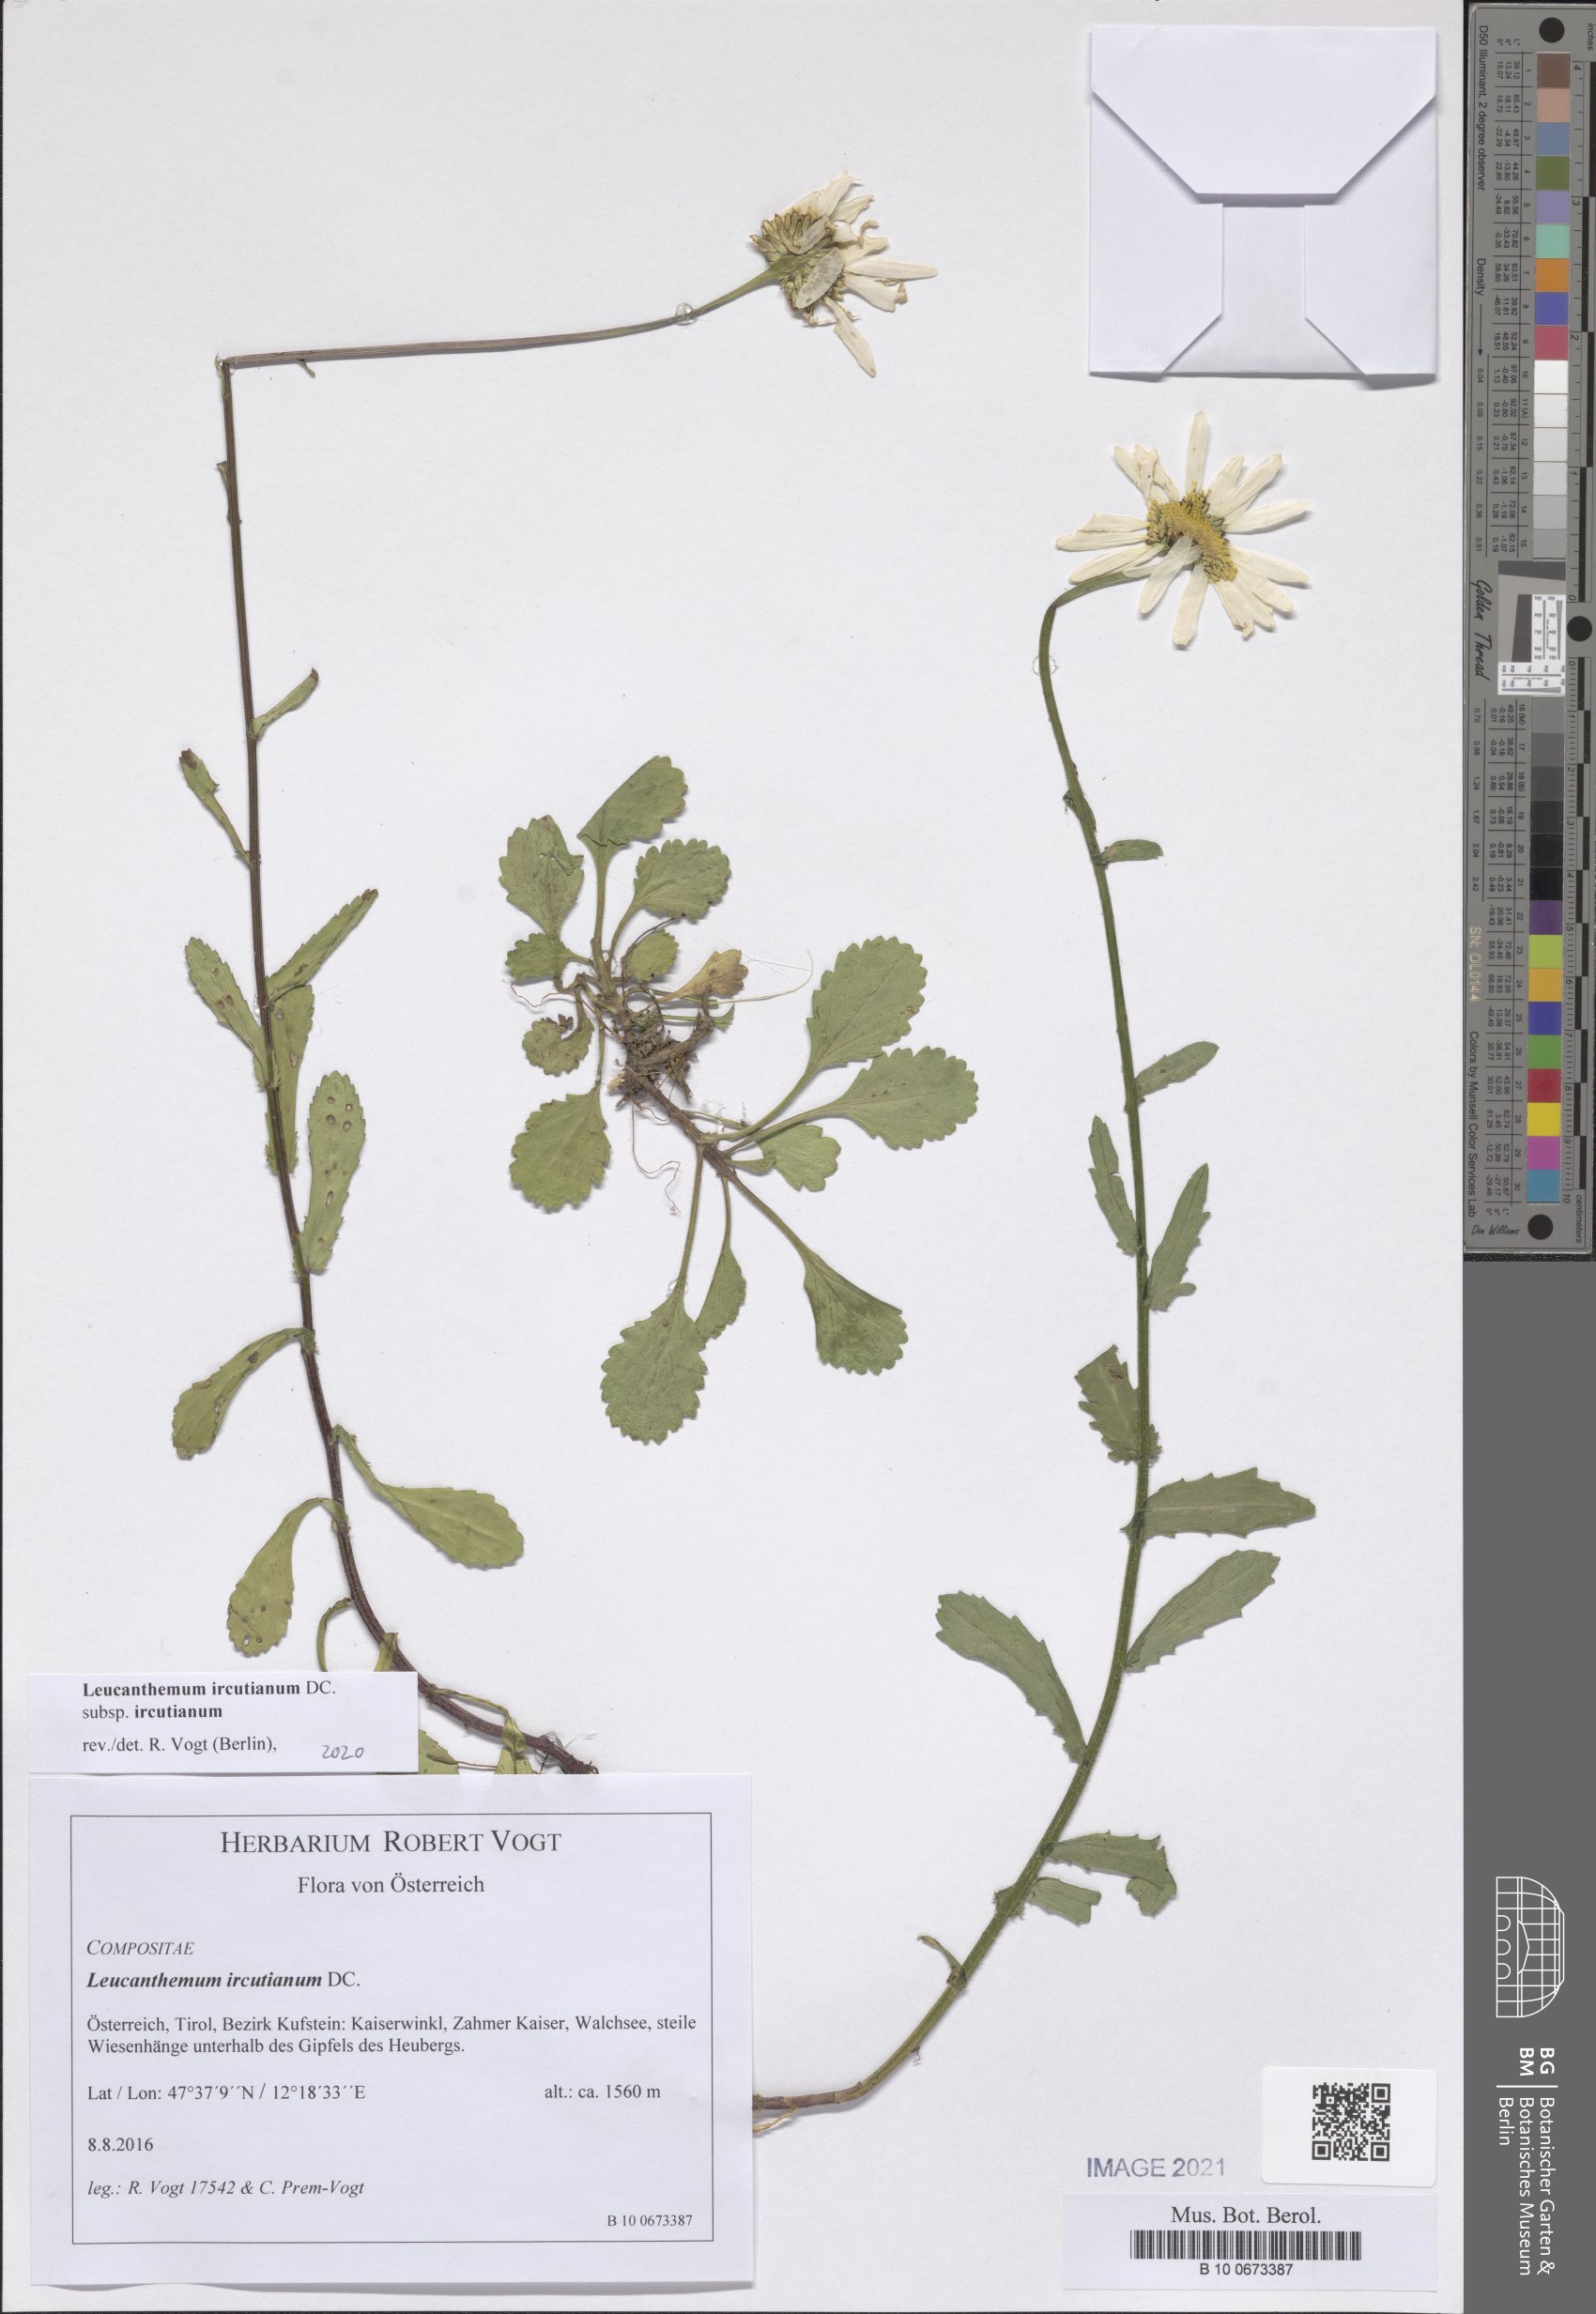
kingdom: Plantae
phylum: Tracheophyta
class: Magnoliopsida
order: Asterales
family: Asteraceae
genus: Leucanthemum
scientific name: Leucanthemum ircutianum
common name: Daisy
